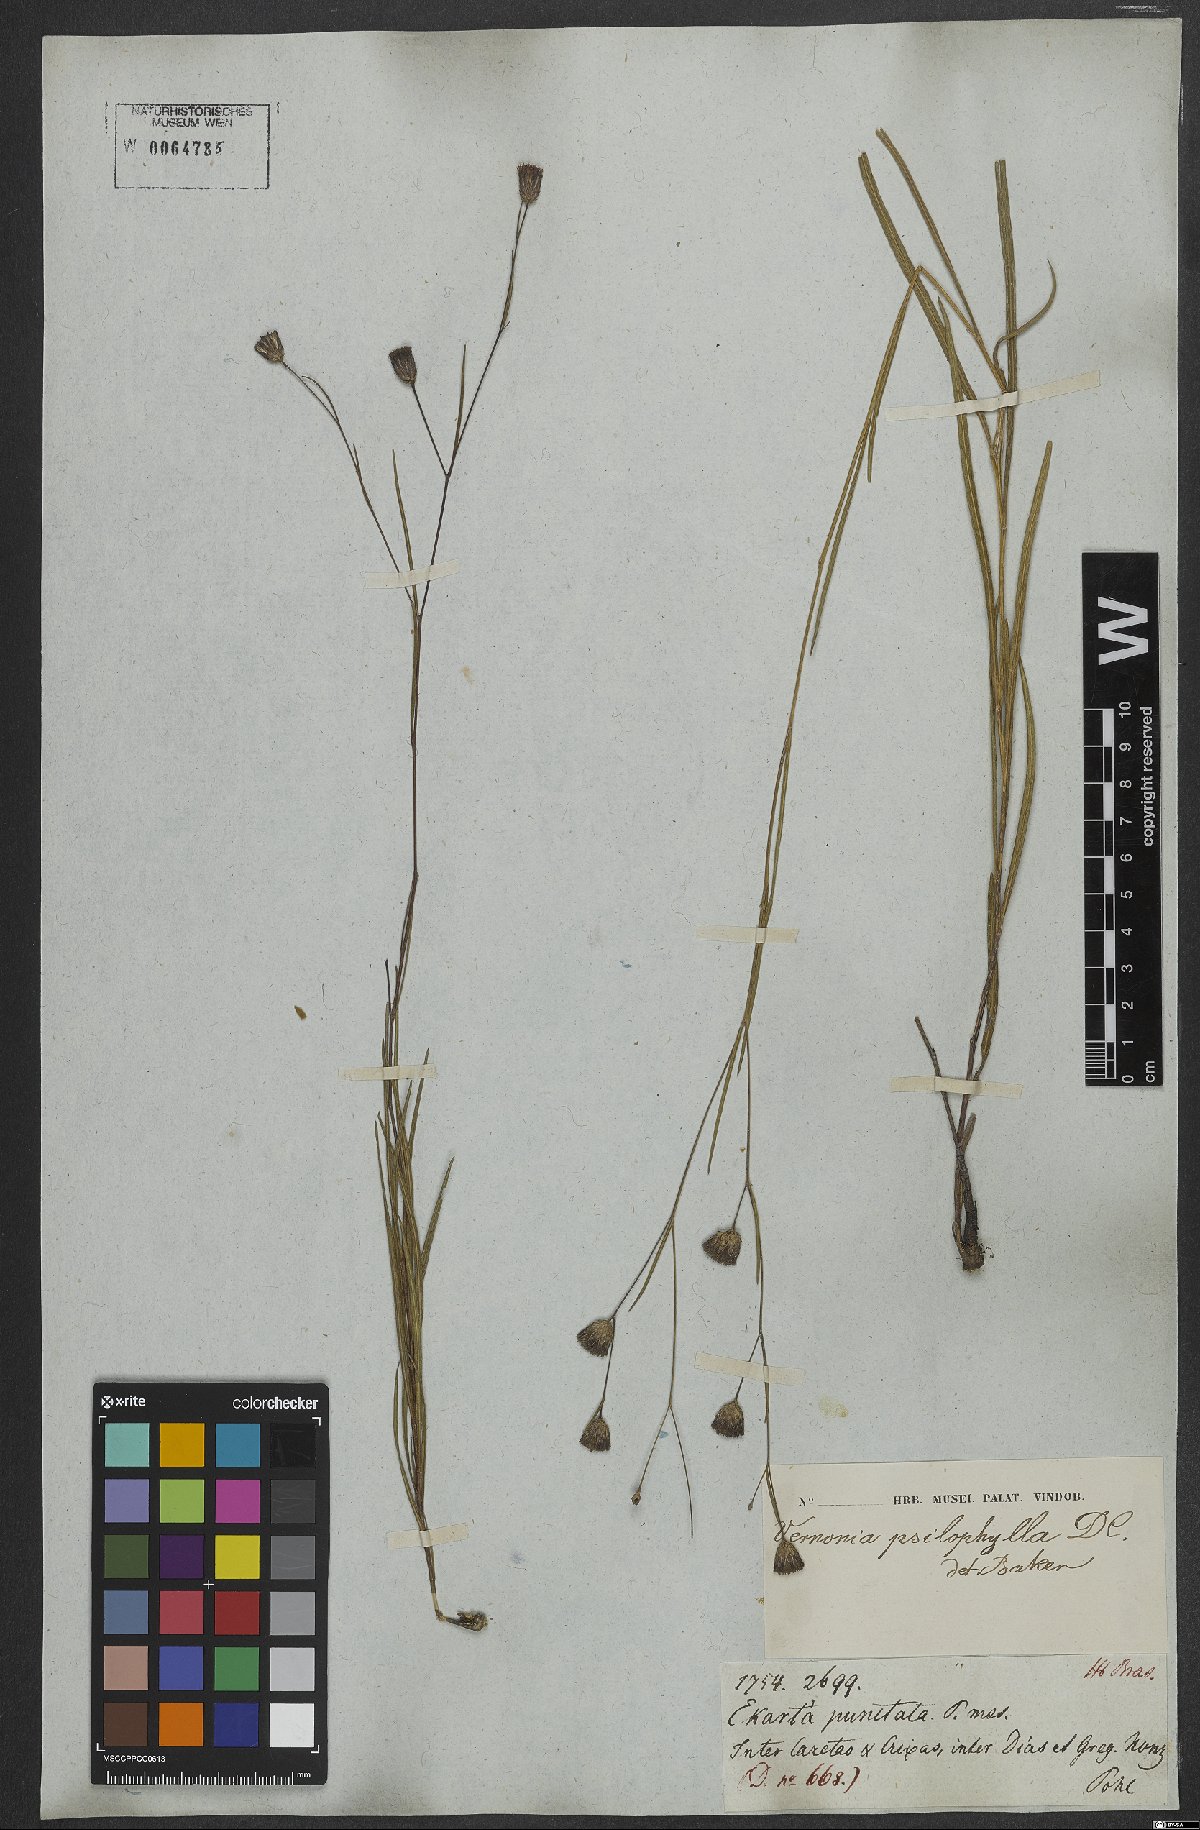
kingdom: Plantae
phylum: Tracheophyta
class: Magnoliopsida
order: Asterales
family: Asteraceae
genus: Lessingianthus
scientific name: Lessingianthus psilophyllus
